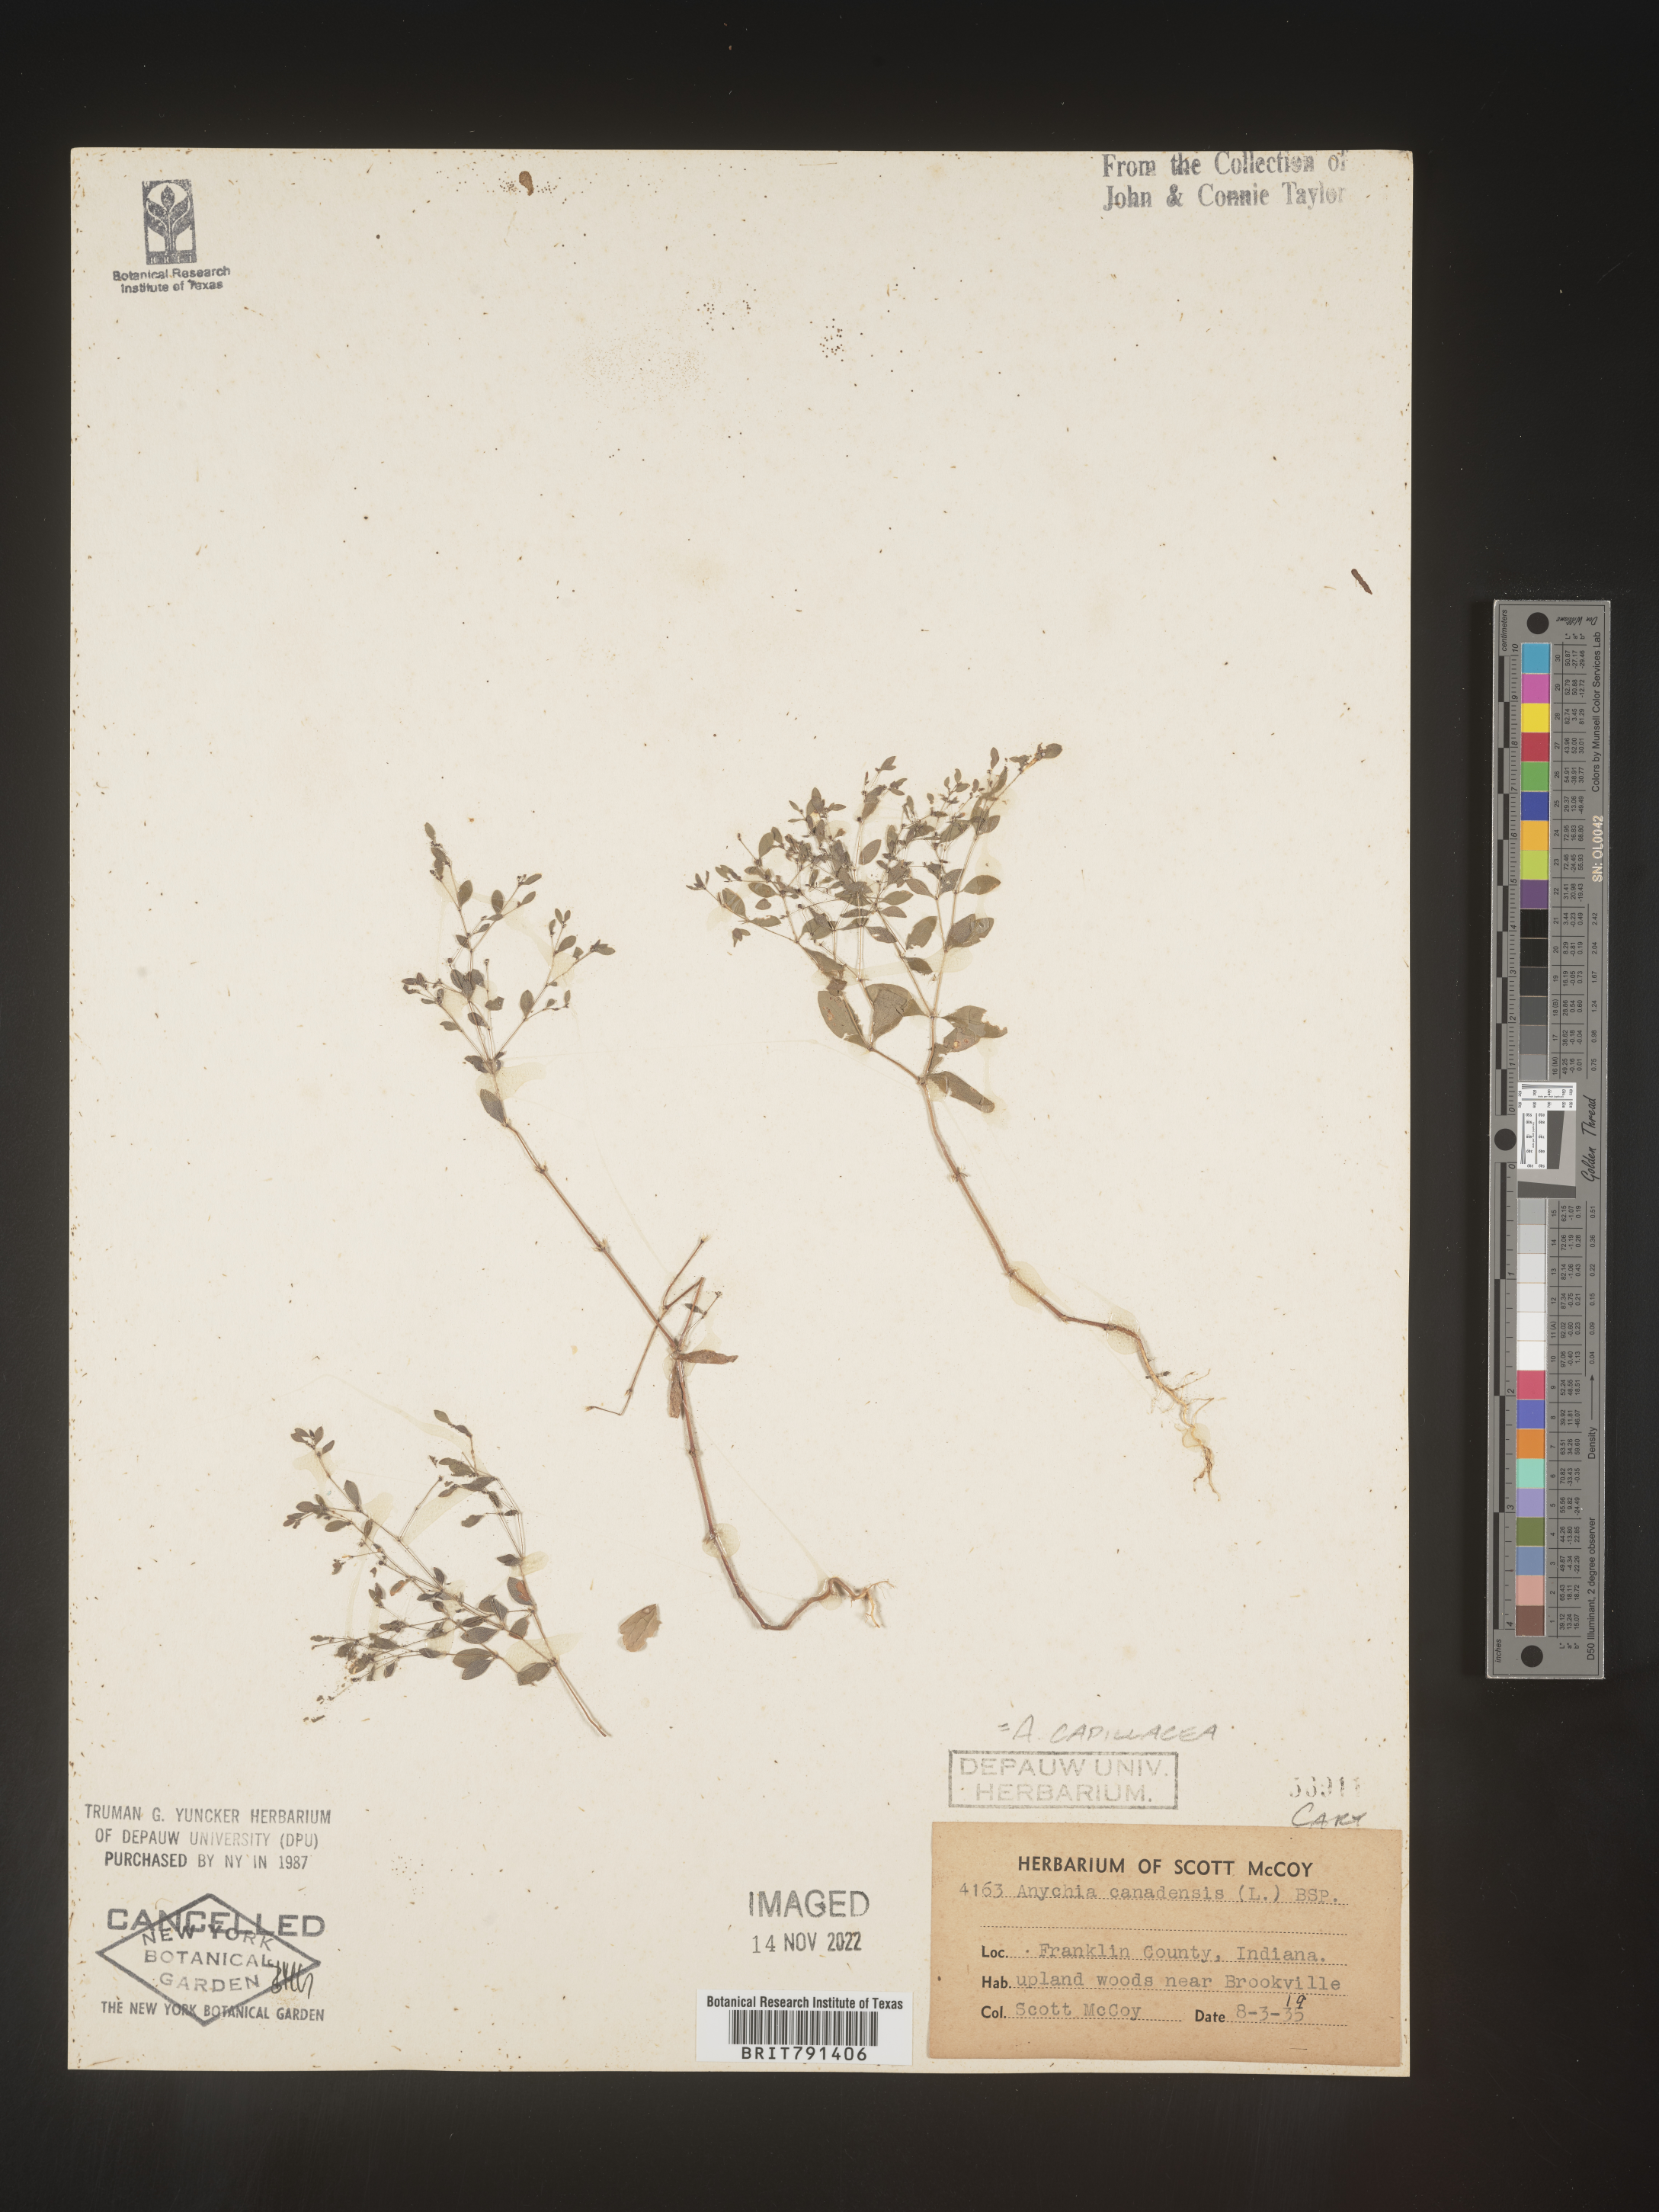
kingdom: Plantae
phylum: Tracheophyta
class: Magnoliopsida
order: Caryophyllales
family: Caryophyllaceae
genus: Paronychia
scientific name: Paronychia canadensis
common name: Canada forked nailwort
